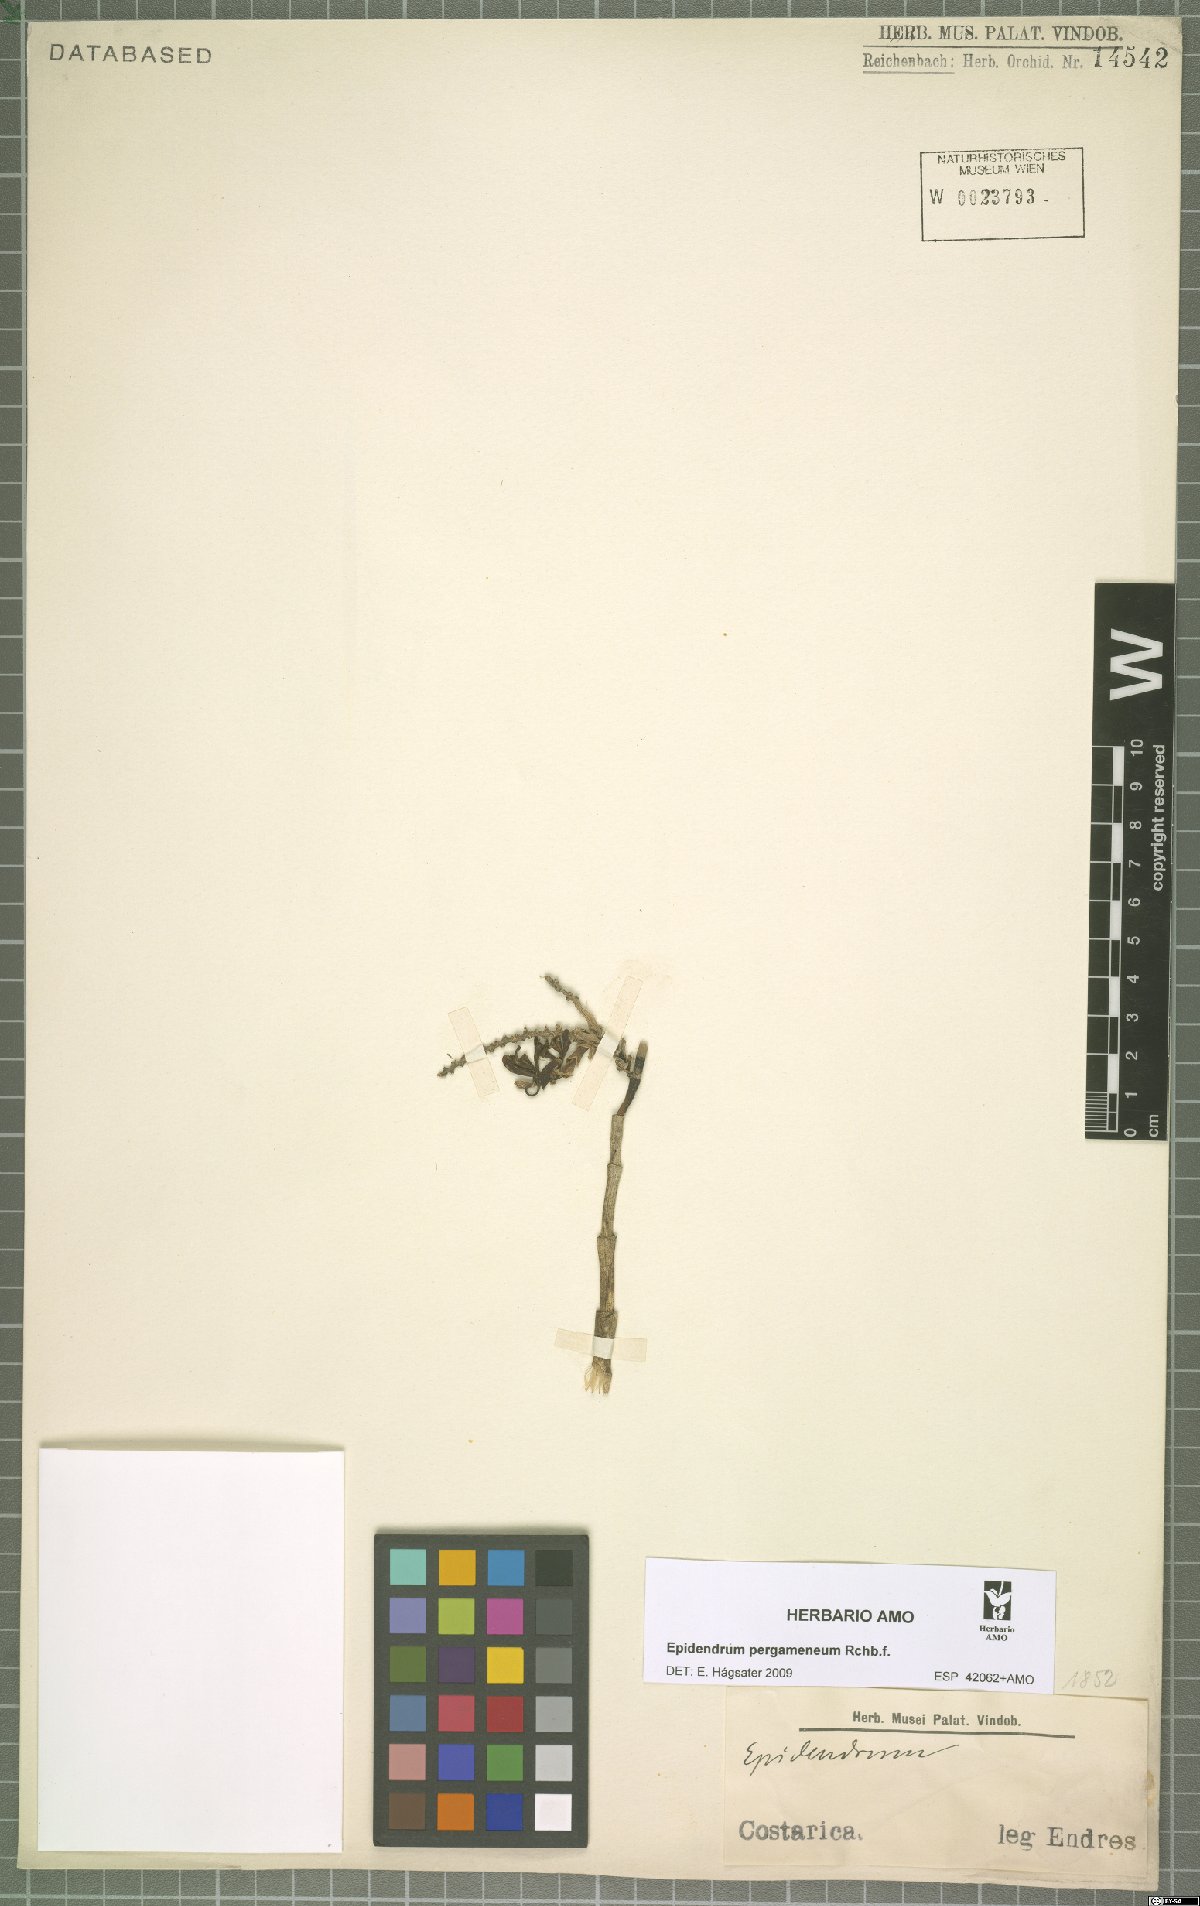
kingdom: Plantae
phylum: Tracheophyta
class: Liliopsida
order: Asparagales
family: Orchidaceae
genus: Epidendrum
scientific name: Epidendrum pergameneum
